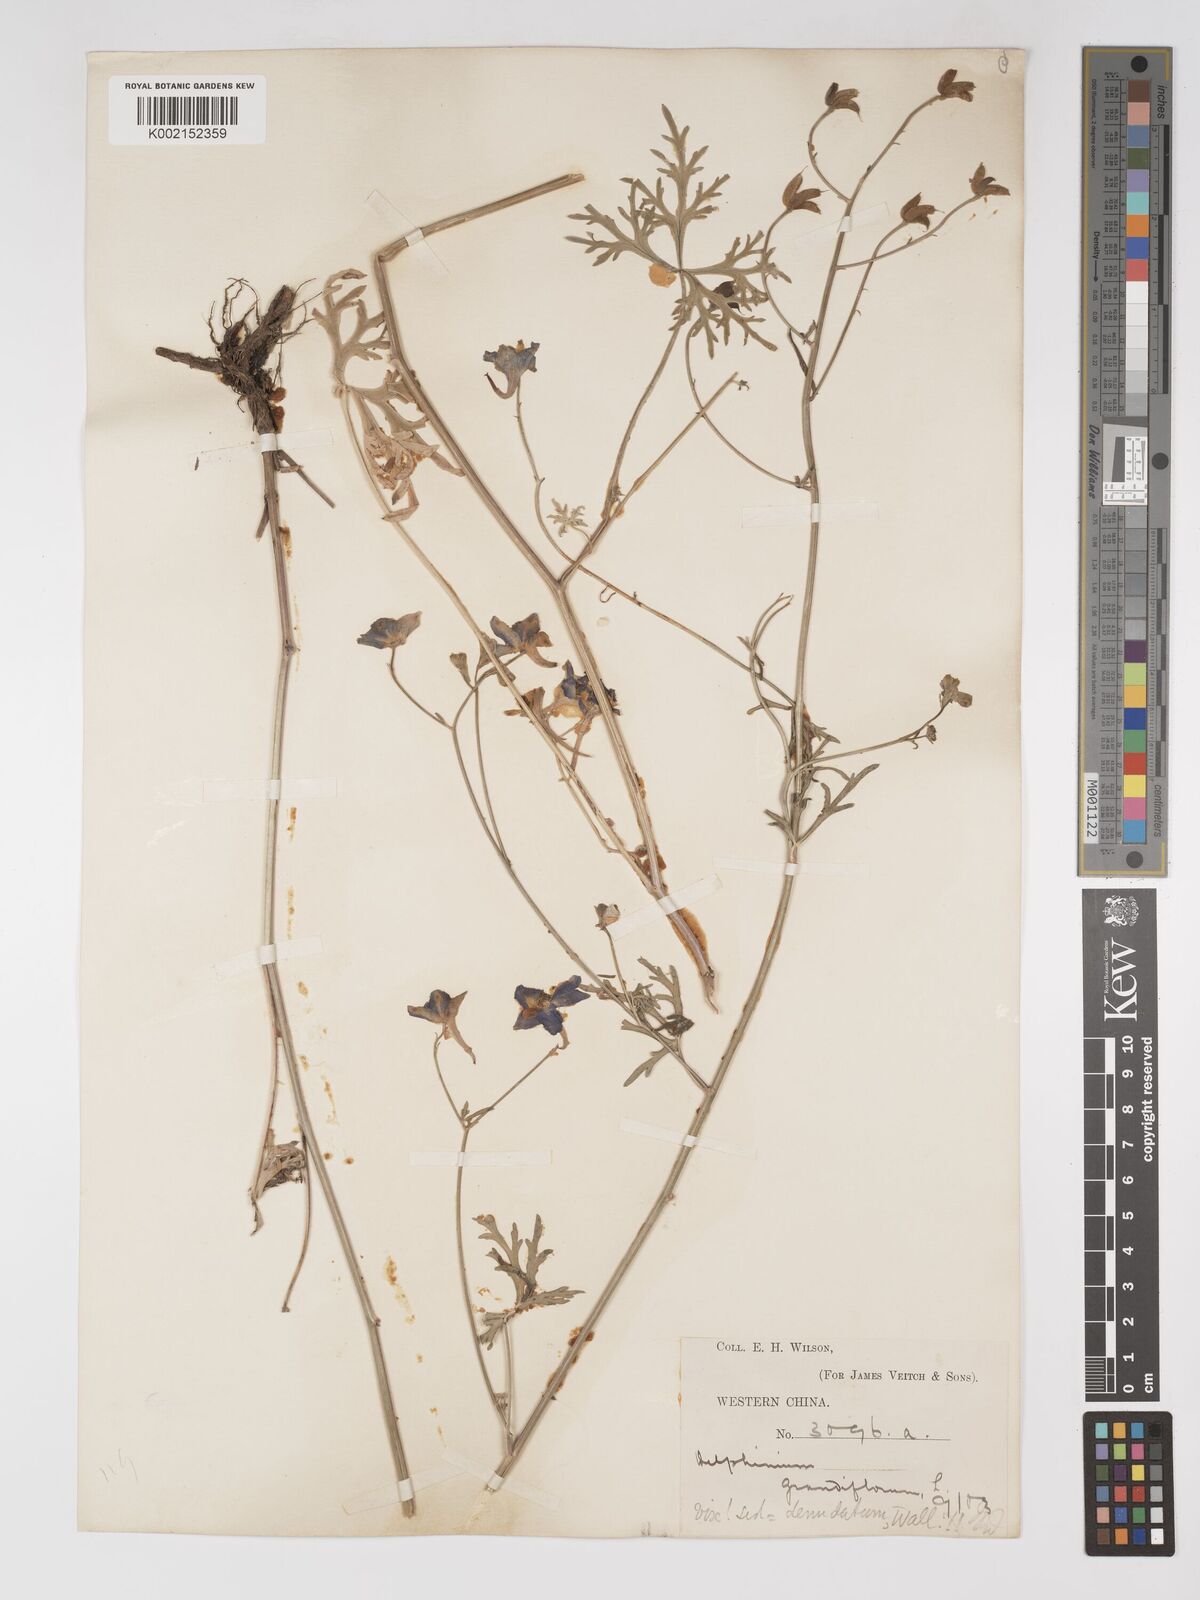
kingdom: Plantae
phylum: Tracheophyta
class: Magnoliopsida
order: Ranunculales
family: Ranunculaceae
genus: Delphinium
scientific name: Delphinium tatsienense
